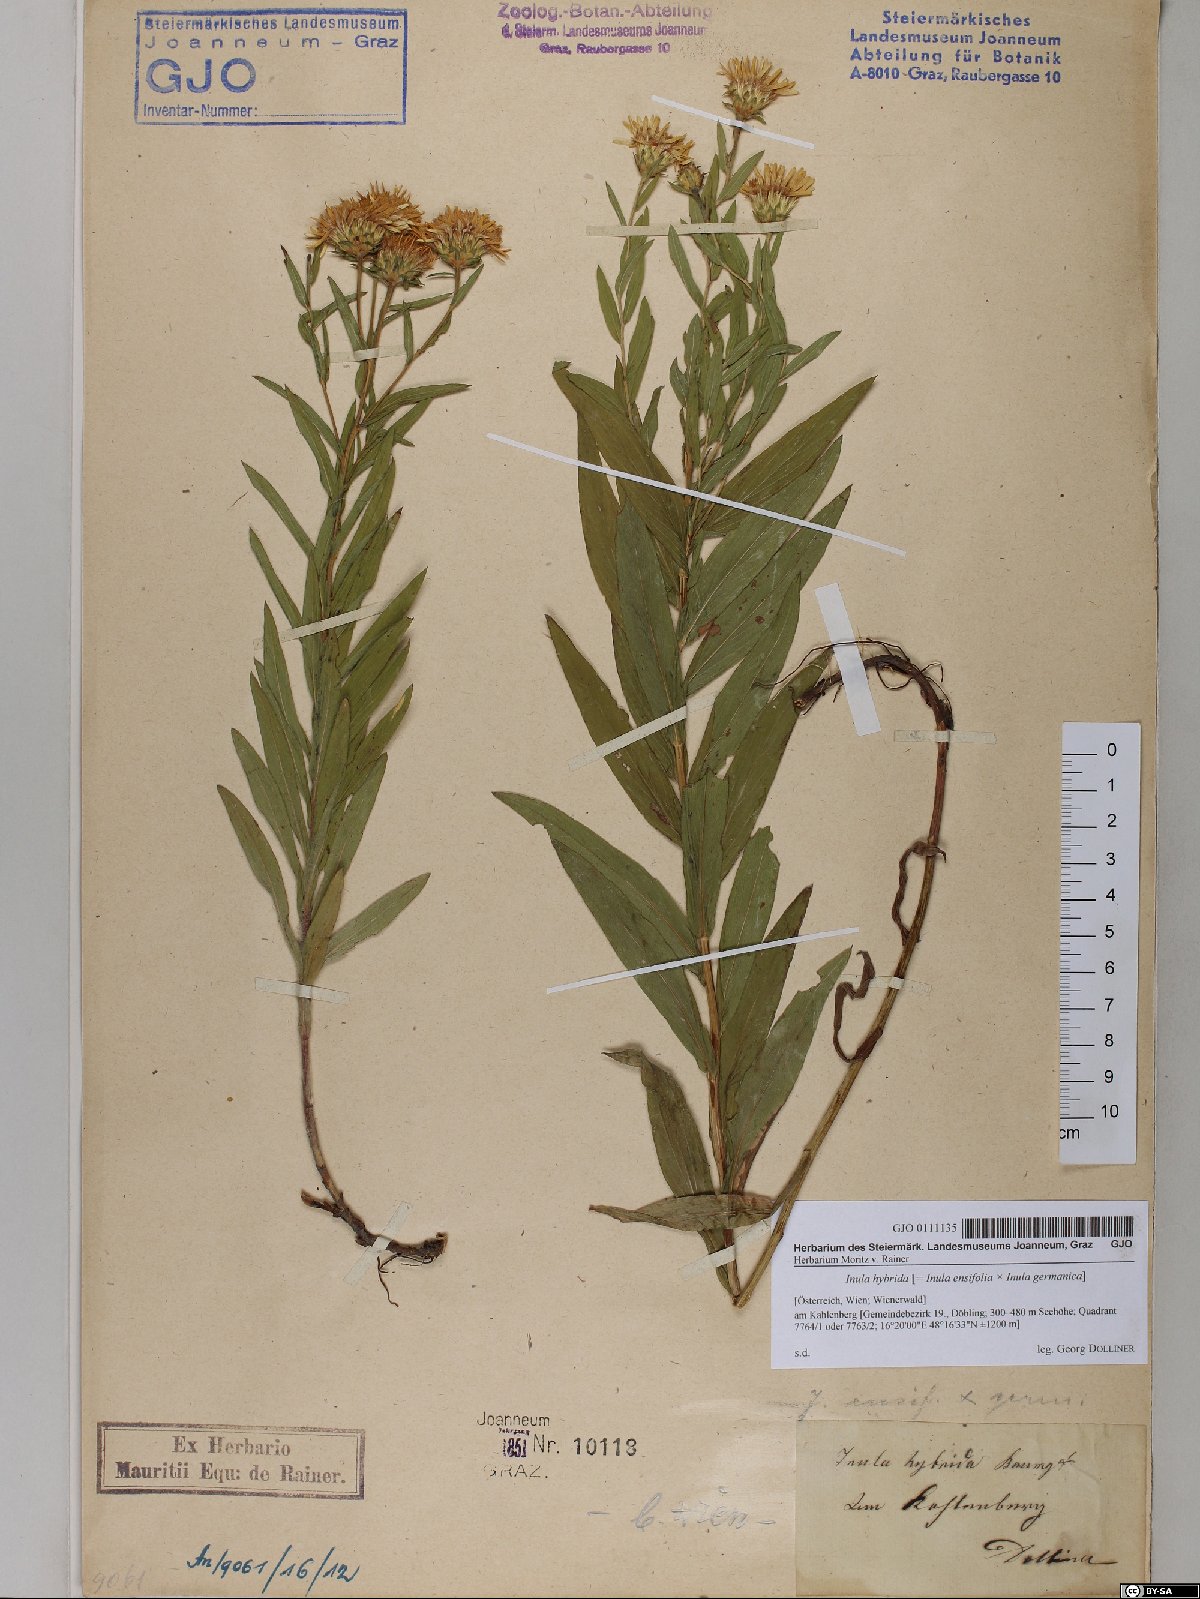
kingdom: Plantae
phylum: Tracheophyta
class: Magnoliopsida
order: Asterales
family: Asteraceae
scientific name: Asteraceae
